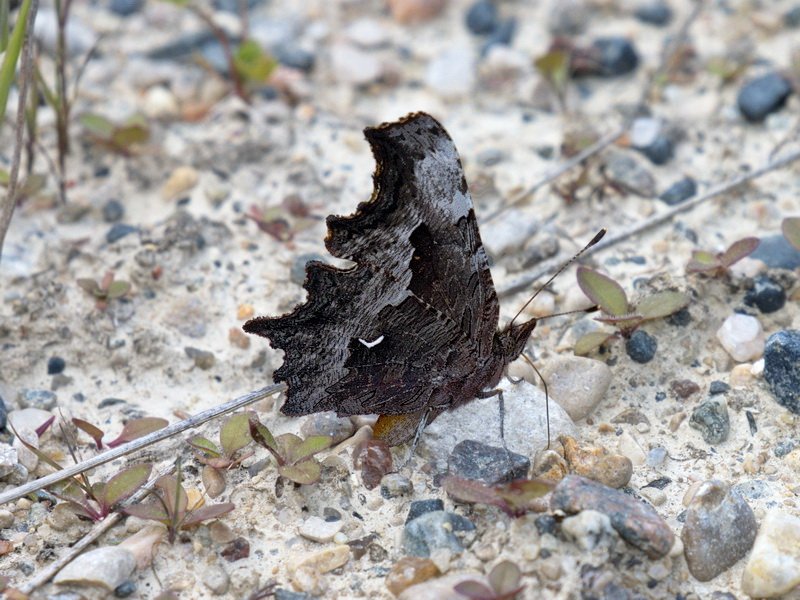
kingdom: Animalia
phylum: Arthropoda
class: Insecta
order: Lepidoptera
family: Nymphalidae
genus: Polygonia
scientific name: Polygonia gracilis
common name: Hoary Comma
